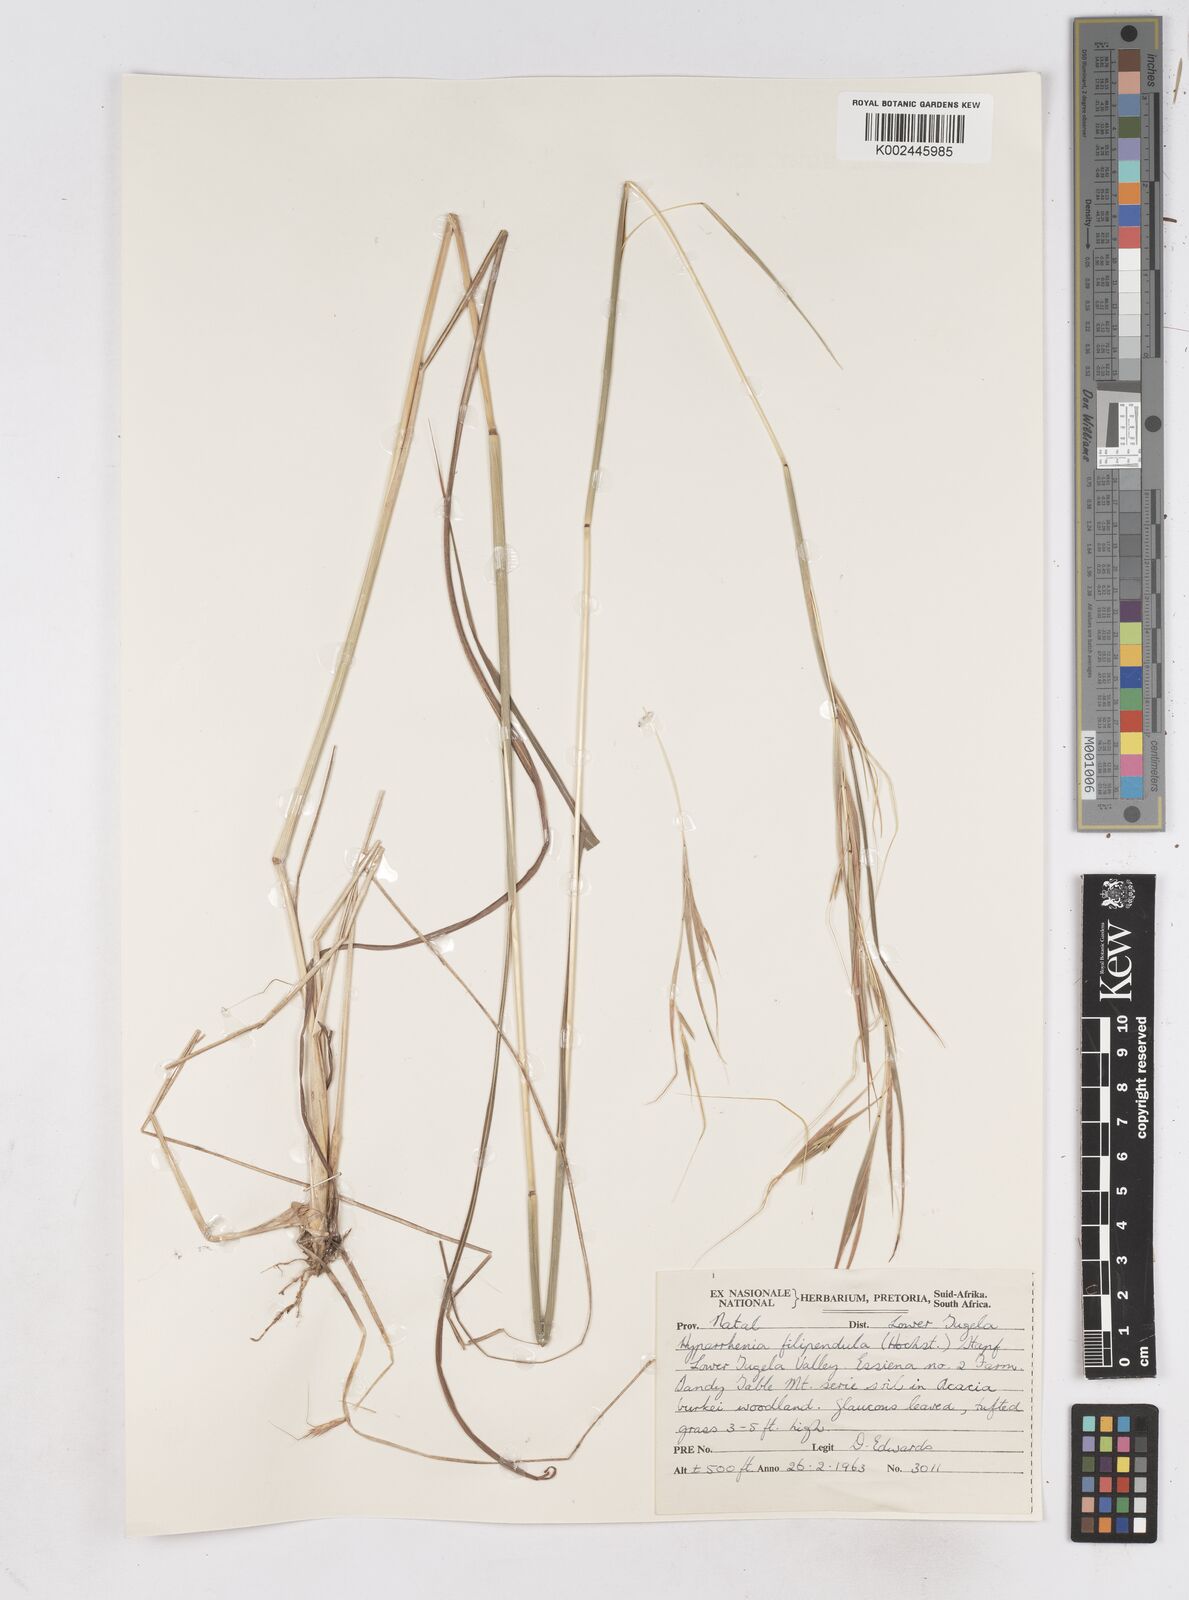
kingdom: Plantae
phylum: Tracheophyta
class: Liliopsida
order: Poales
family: Poaceae
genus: Hyperthelia
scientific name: Hyperthelia dissoluta
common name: Yellow thatching grass
